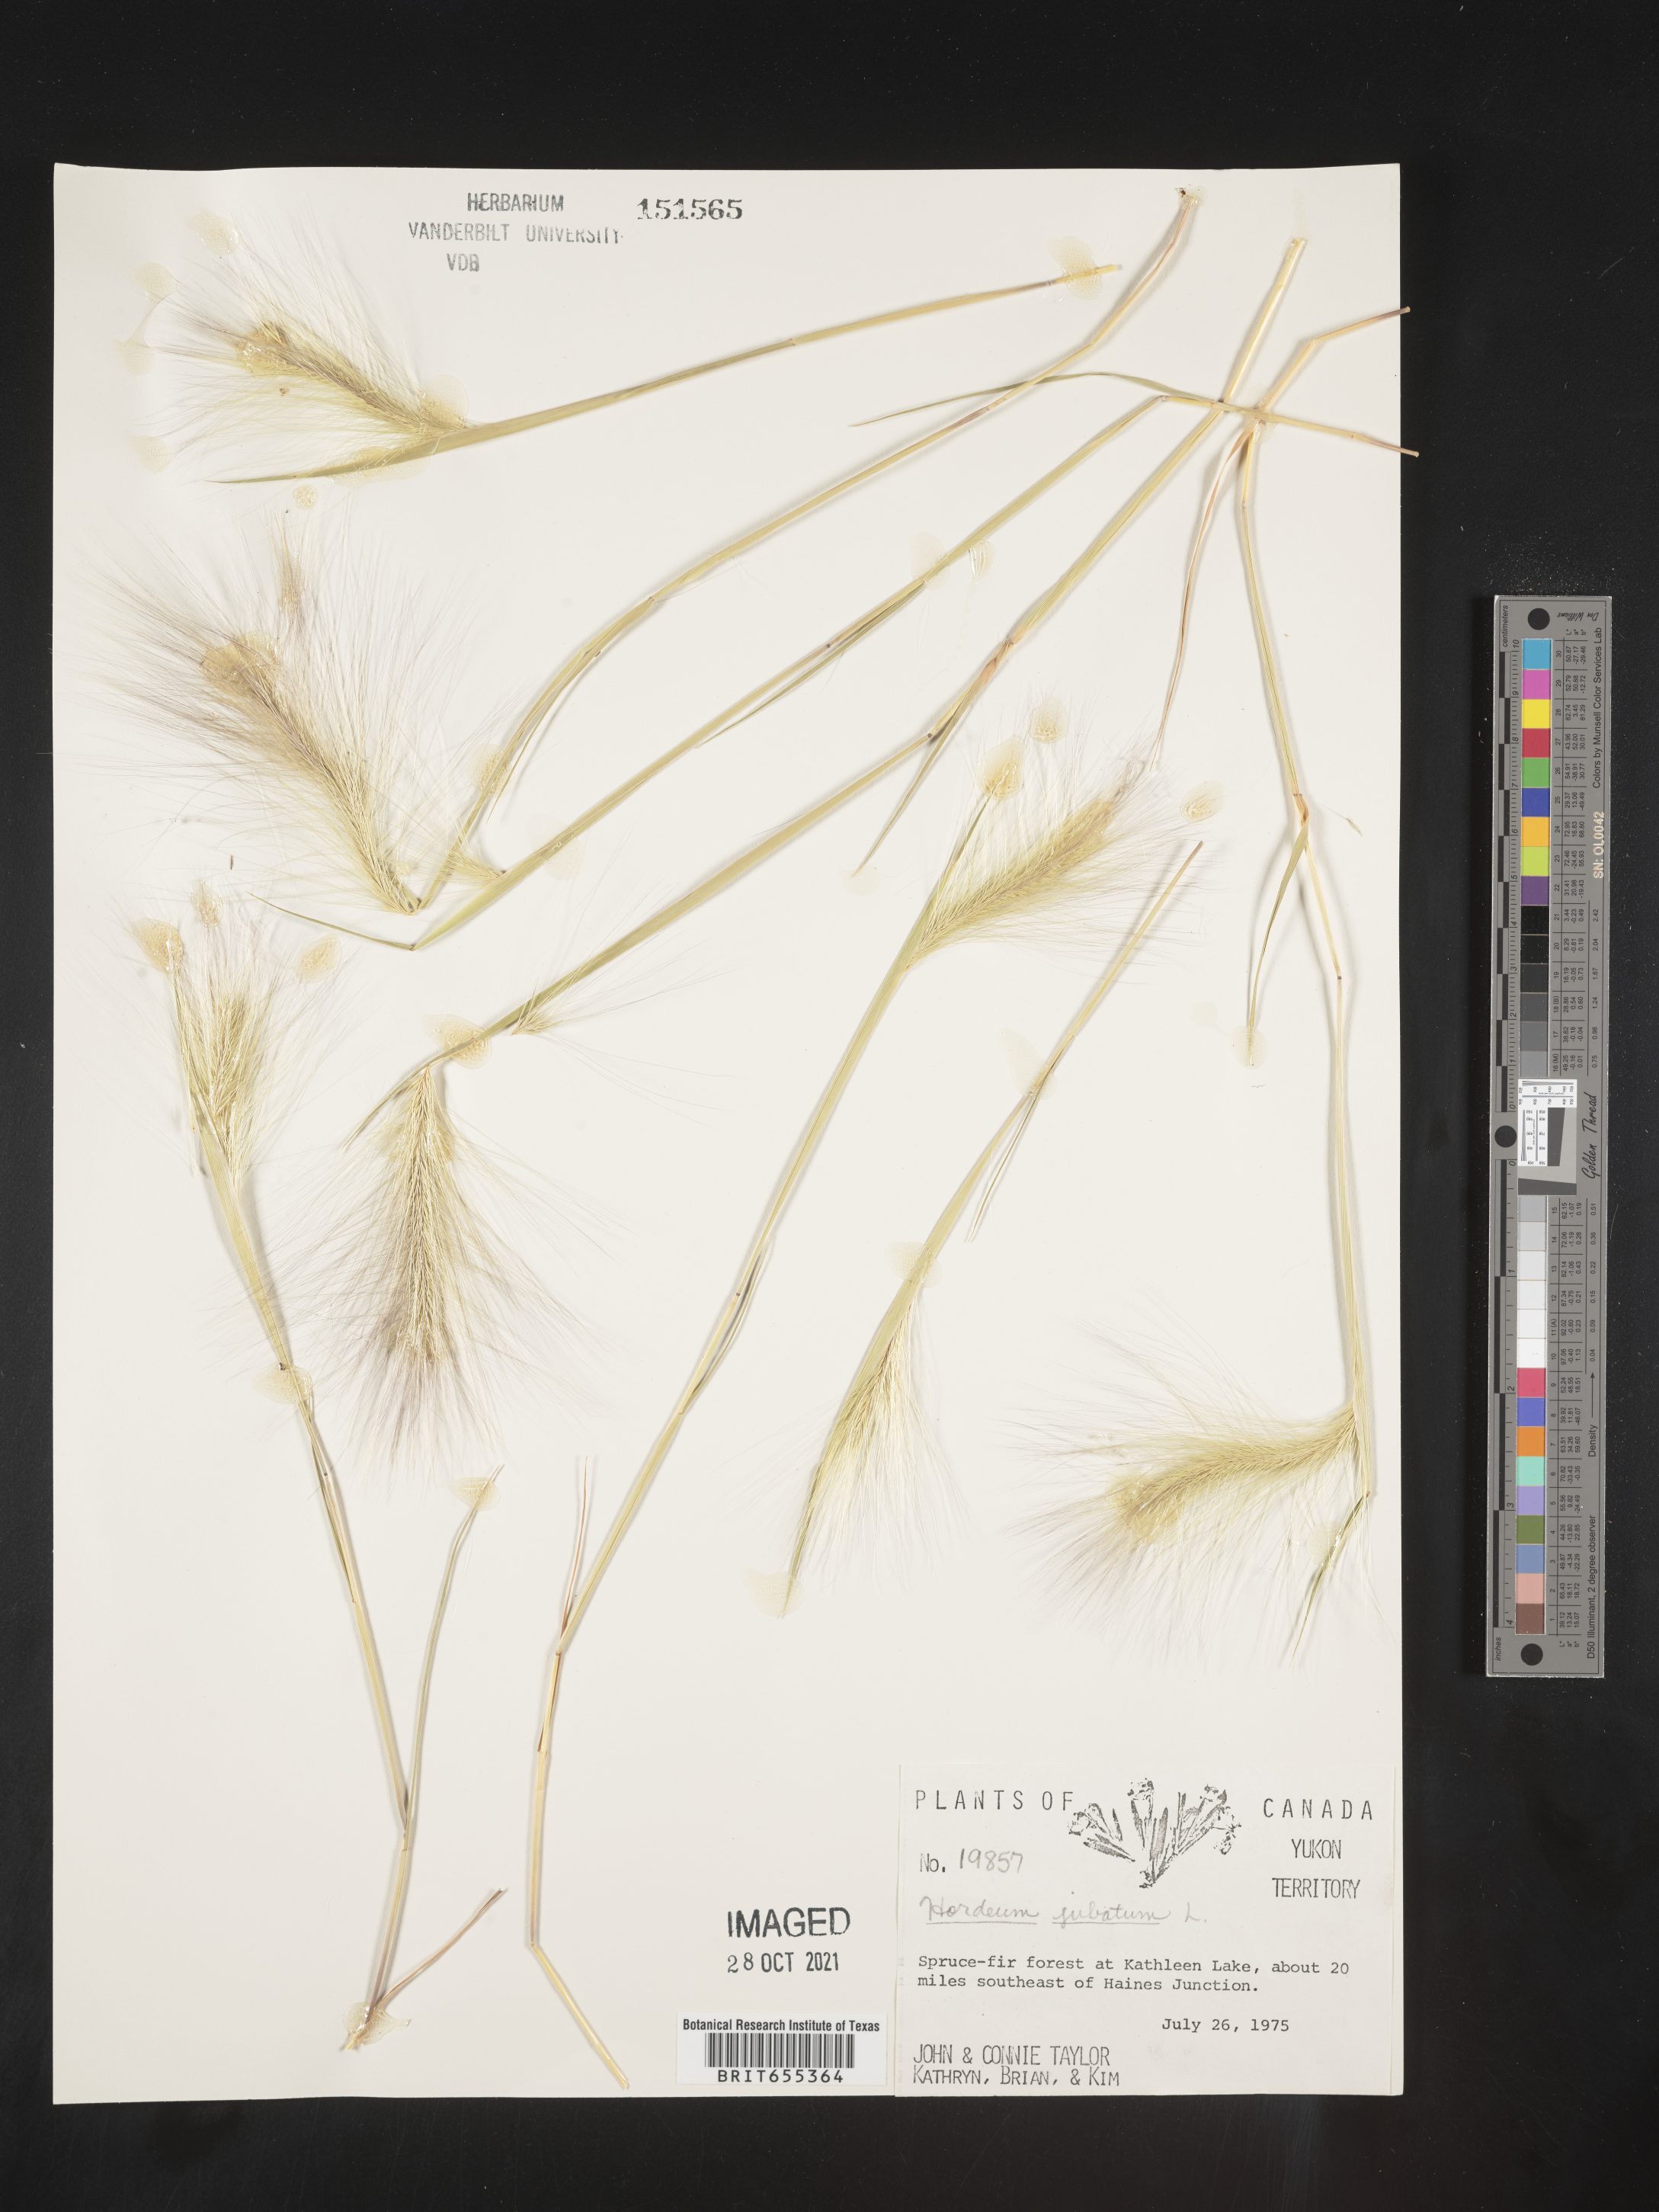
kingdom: Plantae
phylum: Tracheophyta
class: Liliopsida
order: Poales
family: Poaceae
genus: Hordeum
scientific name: Hordeum
